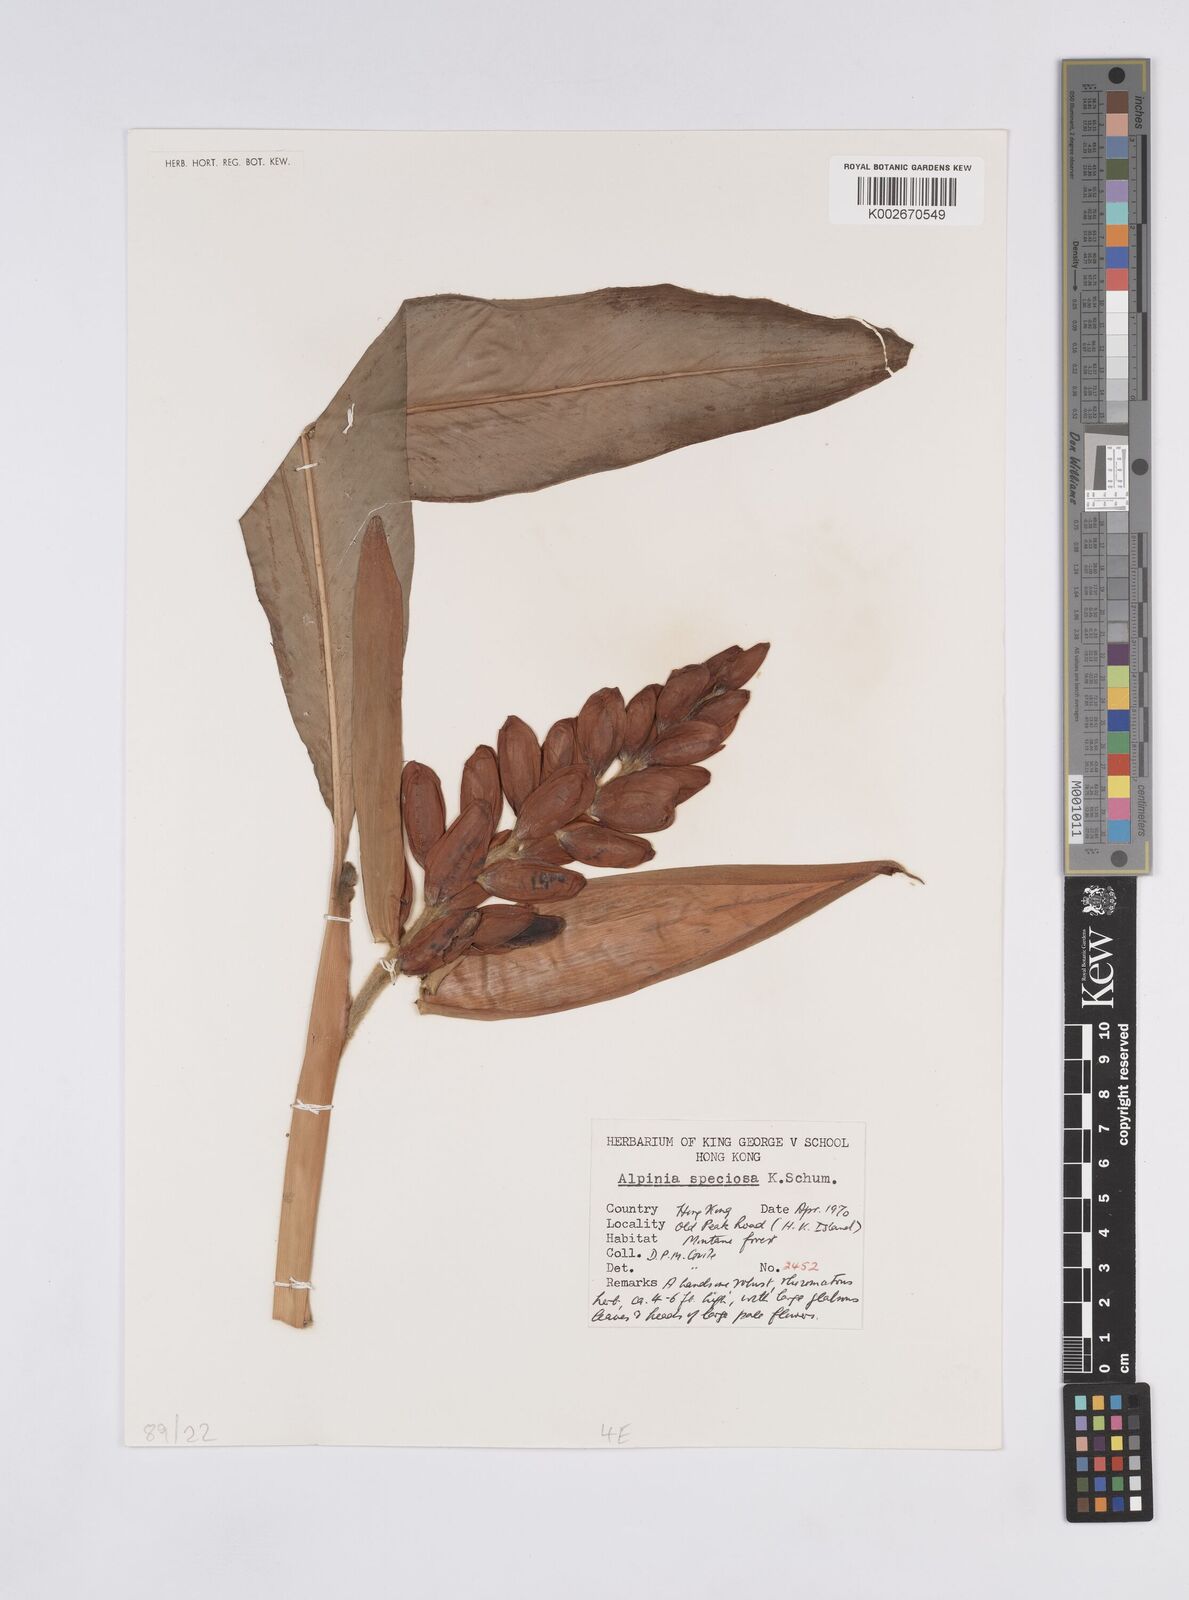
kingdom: Plantae
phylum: Tracheophyta
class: Liliopsida
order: Zingiberales
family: Zingiberaceae
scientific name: Zingiberaceae
